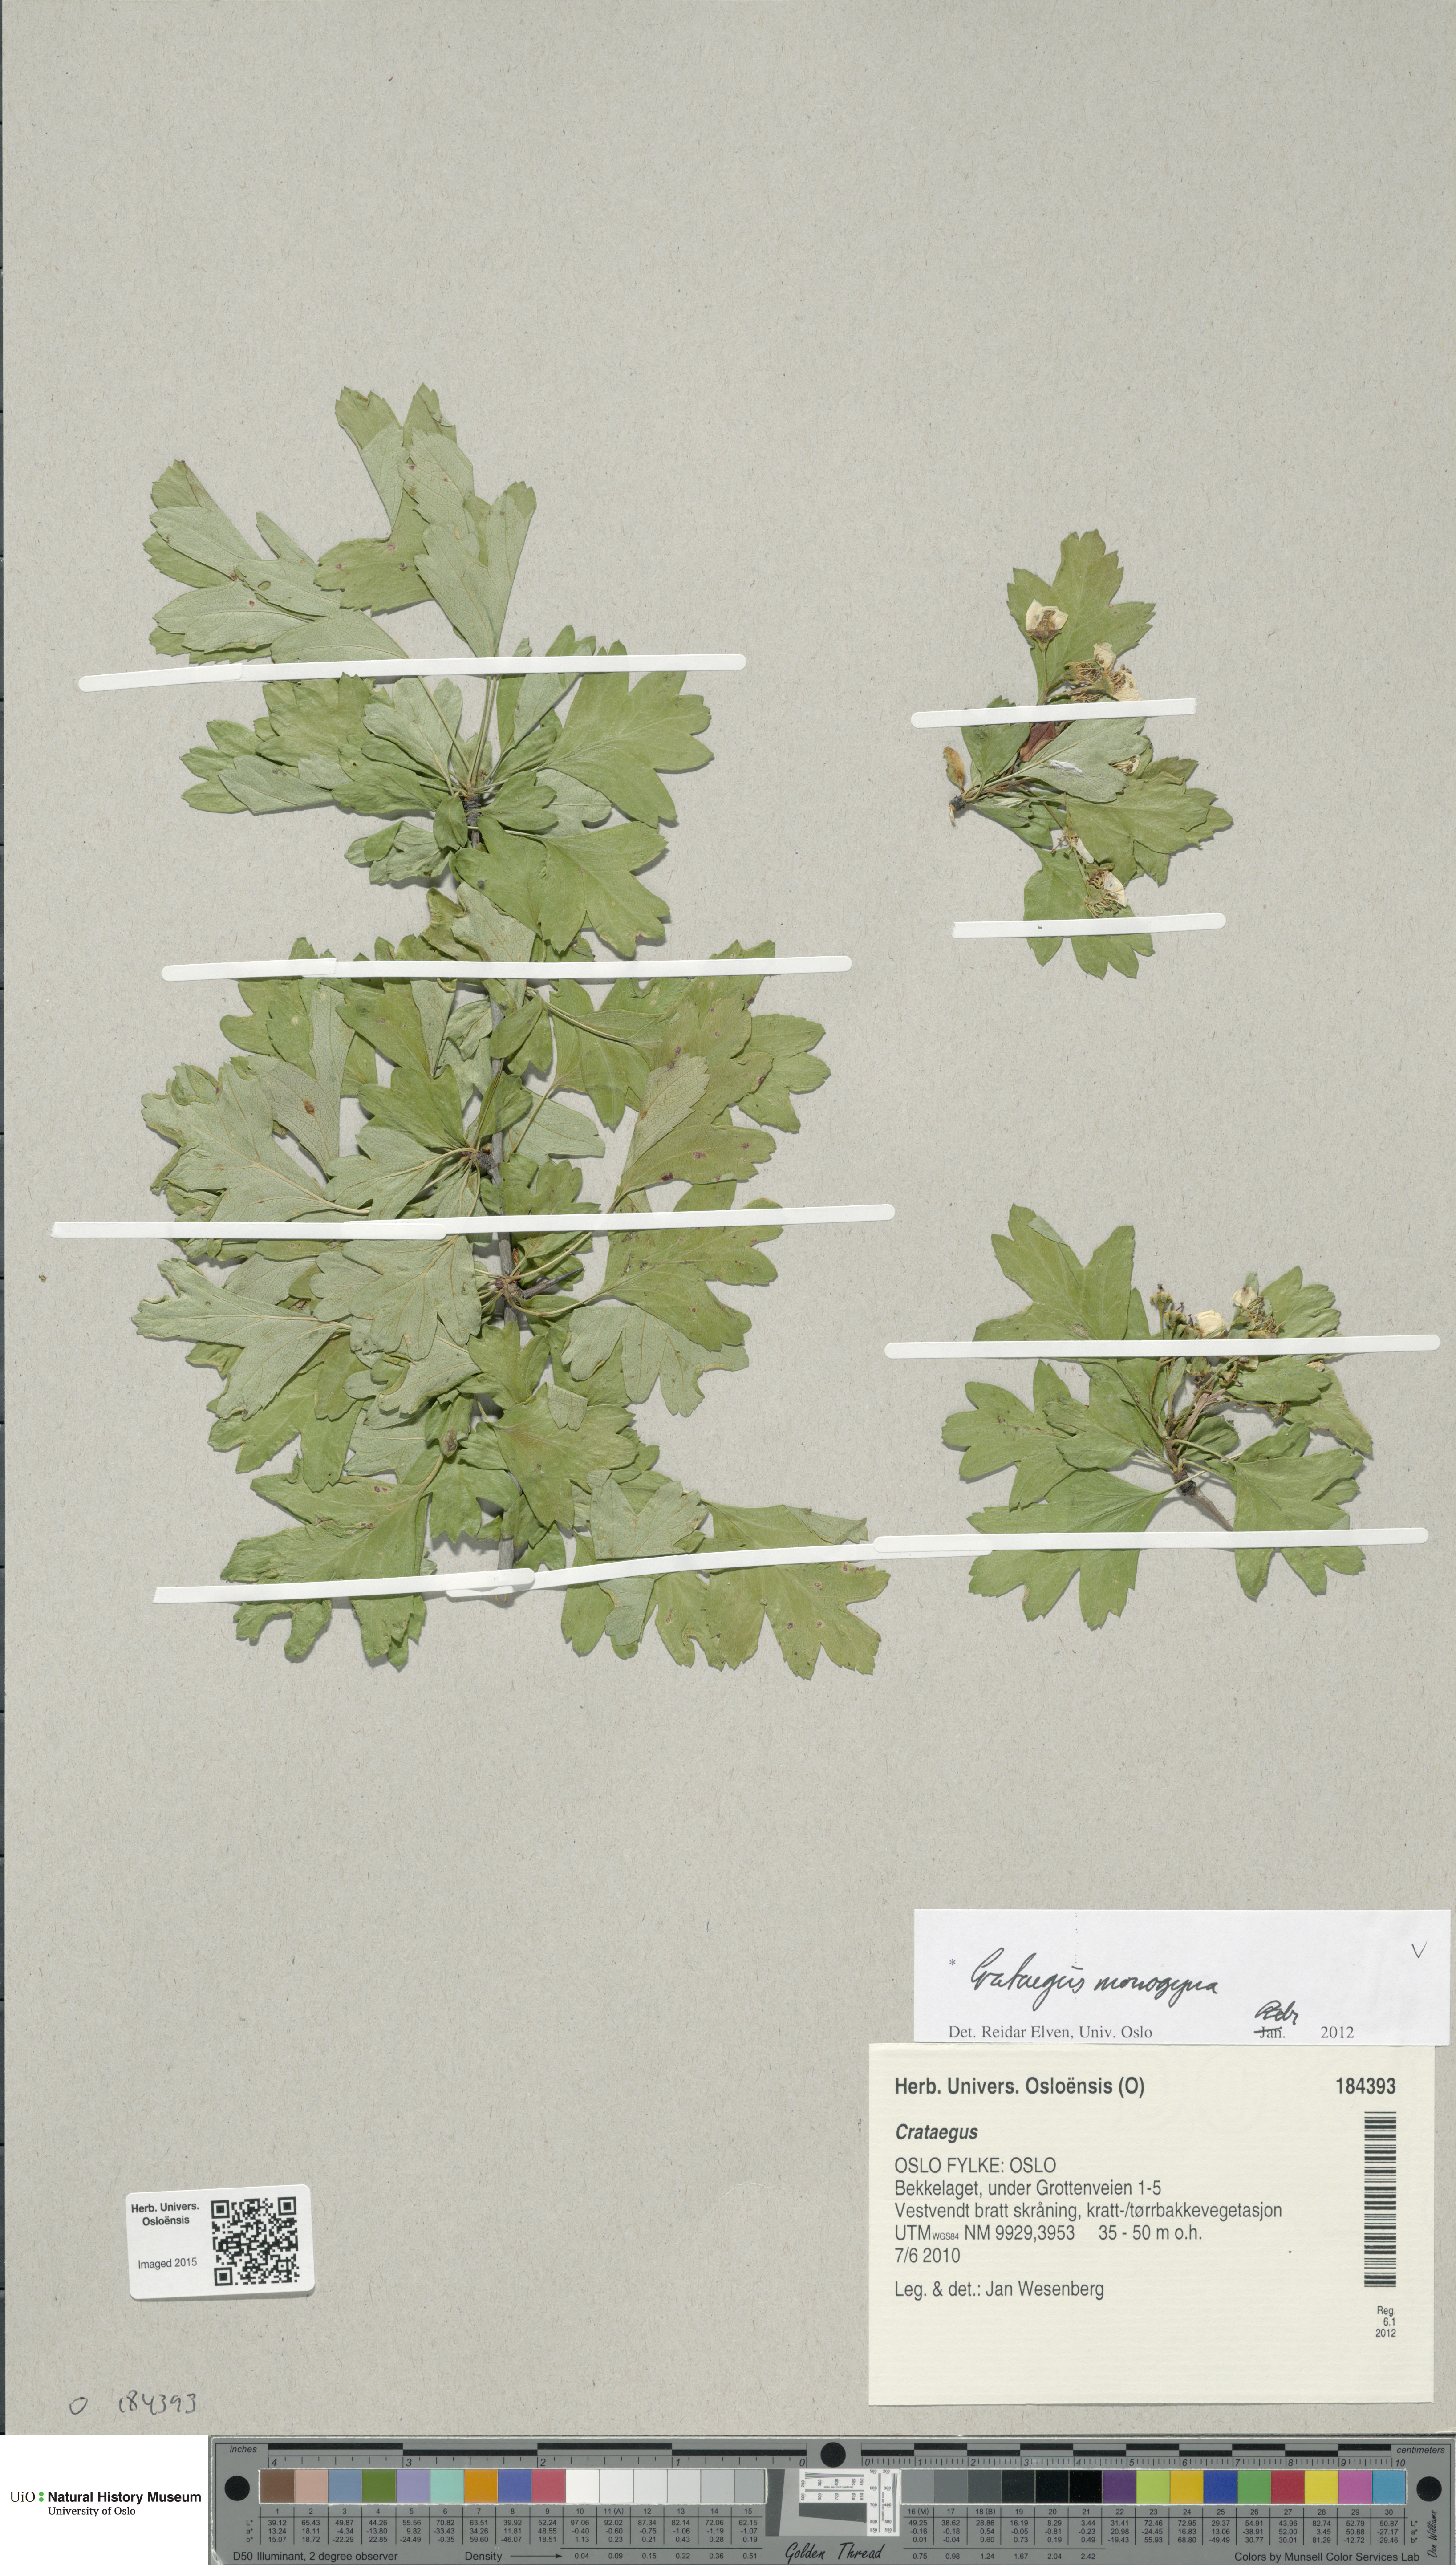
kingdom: Plantae
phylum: Tracheophyta
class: Magnoliopsida
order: Rosales
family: Rosaceae
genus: Crataegus
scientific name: Crataegus monogyna
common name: Hawthorn
